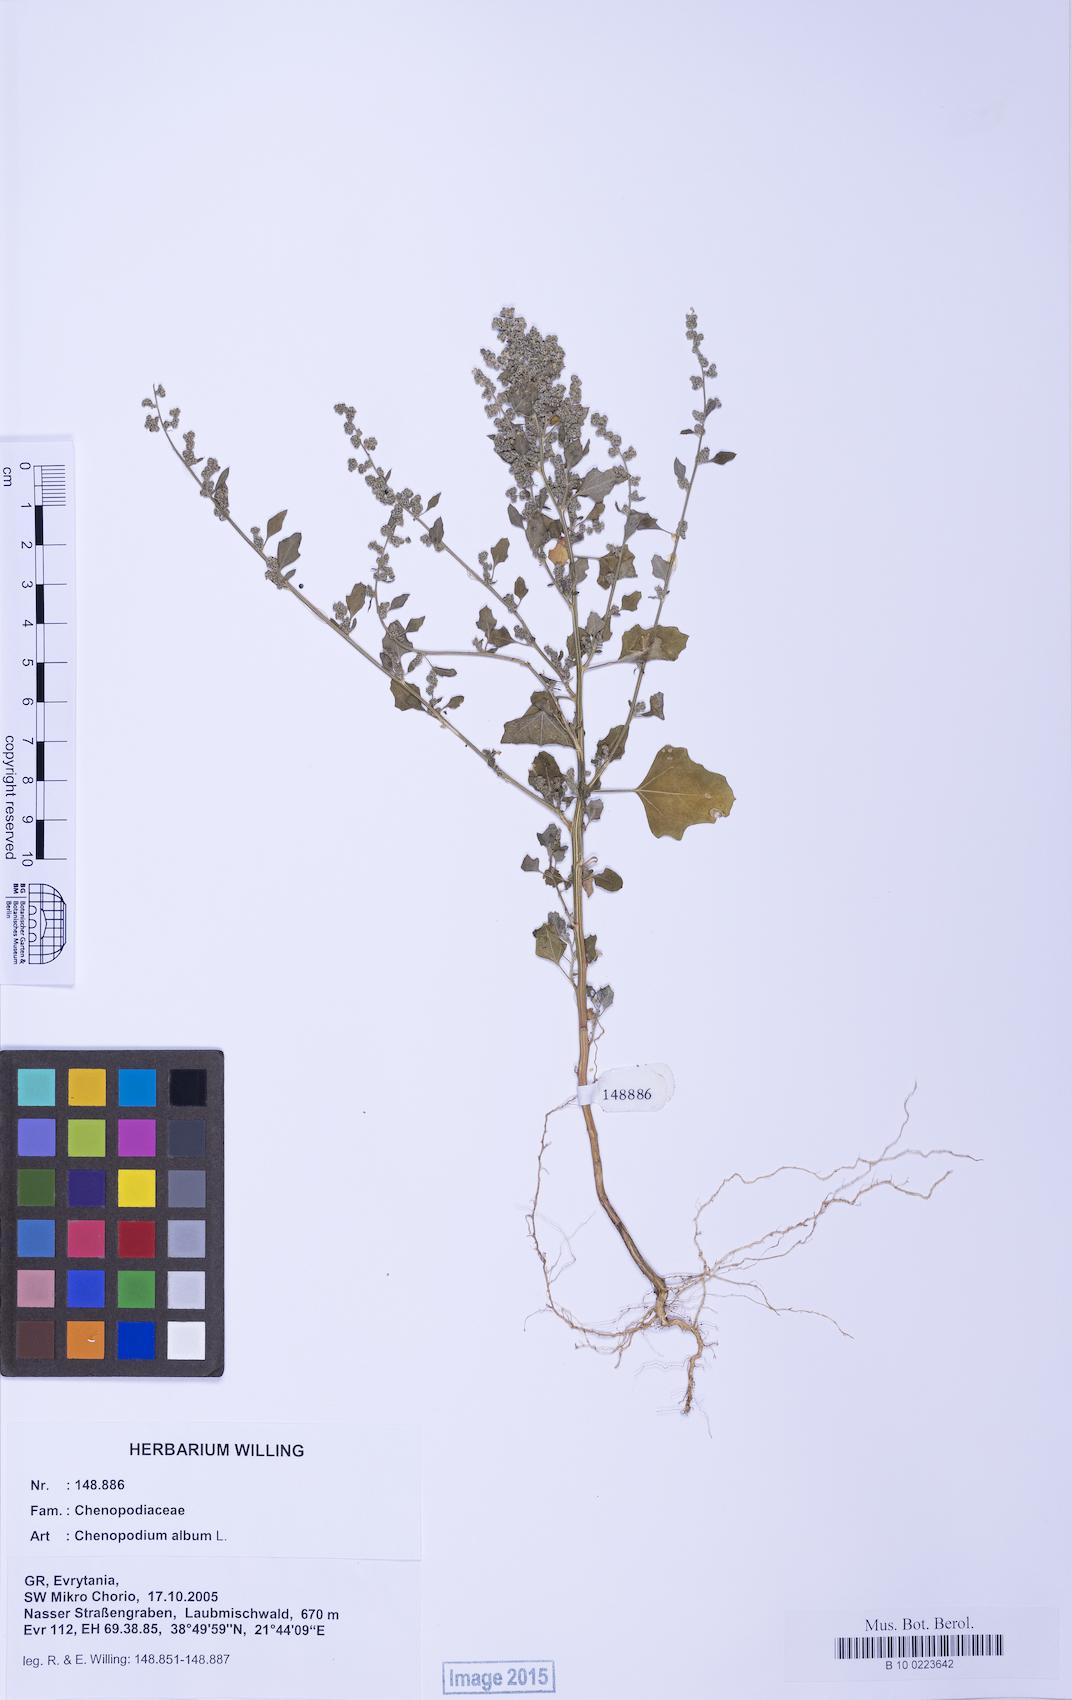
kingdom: Plantae
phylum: Tracheophyta
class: Magnoliopsida
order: Caryophyllales
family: Amaranthaceae
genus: Chenopodium
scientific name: Chenopodium album
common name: Fat-hen
